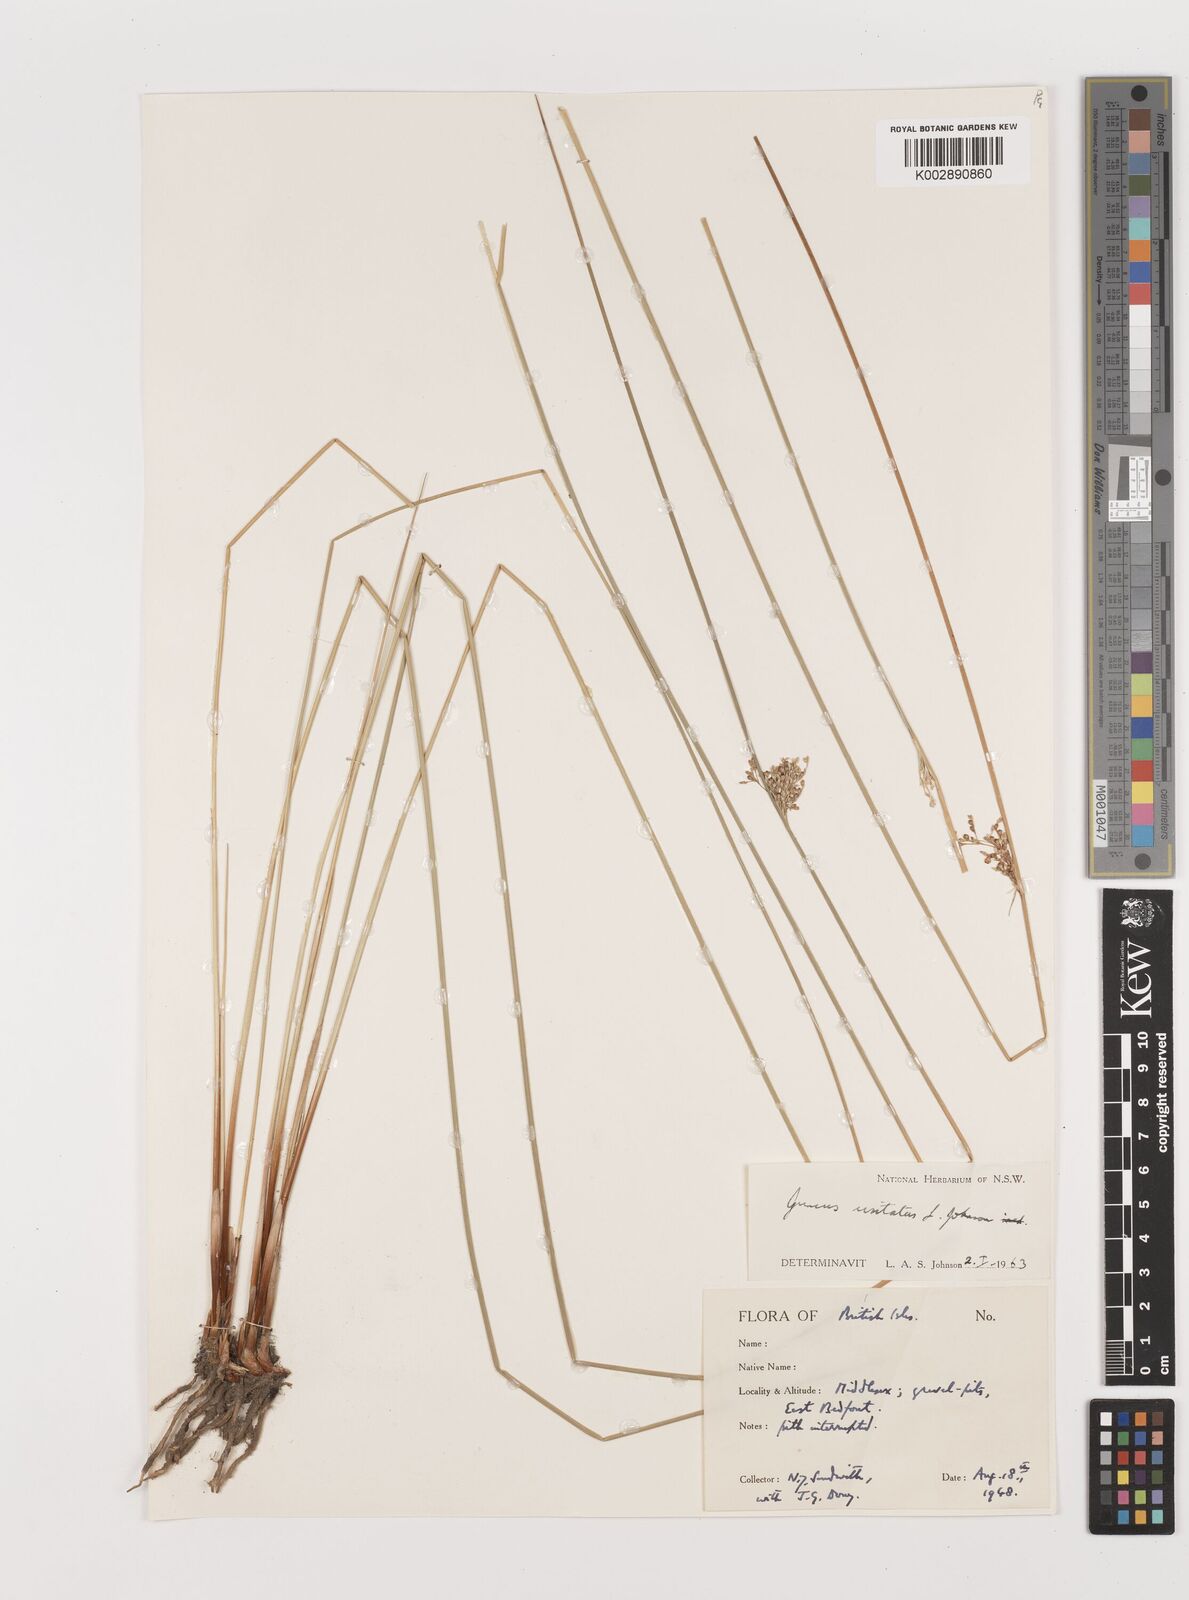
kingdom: Plantae
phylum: Tracheophyta
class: Liliopsida
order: Poales
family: Juncaceae
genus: Juncus
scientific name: Juncus usitatus
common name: Rush
